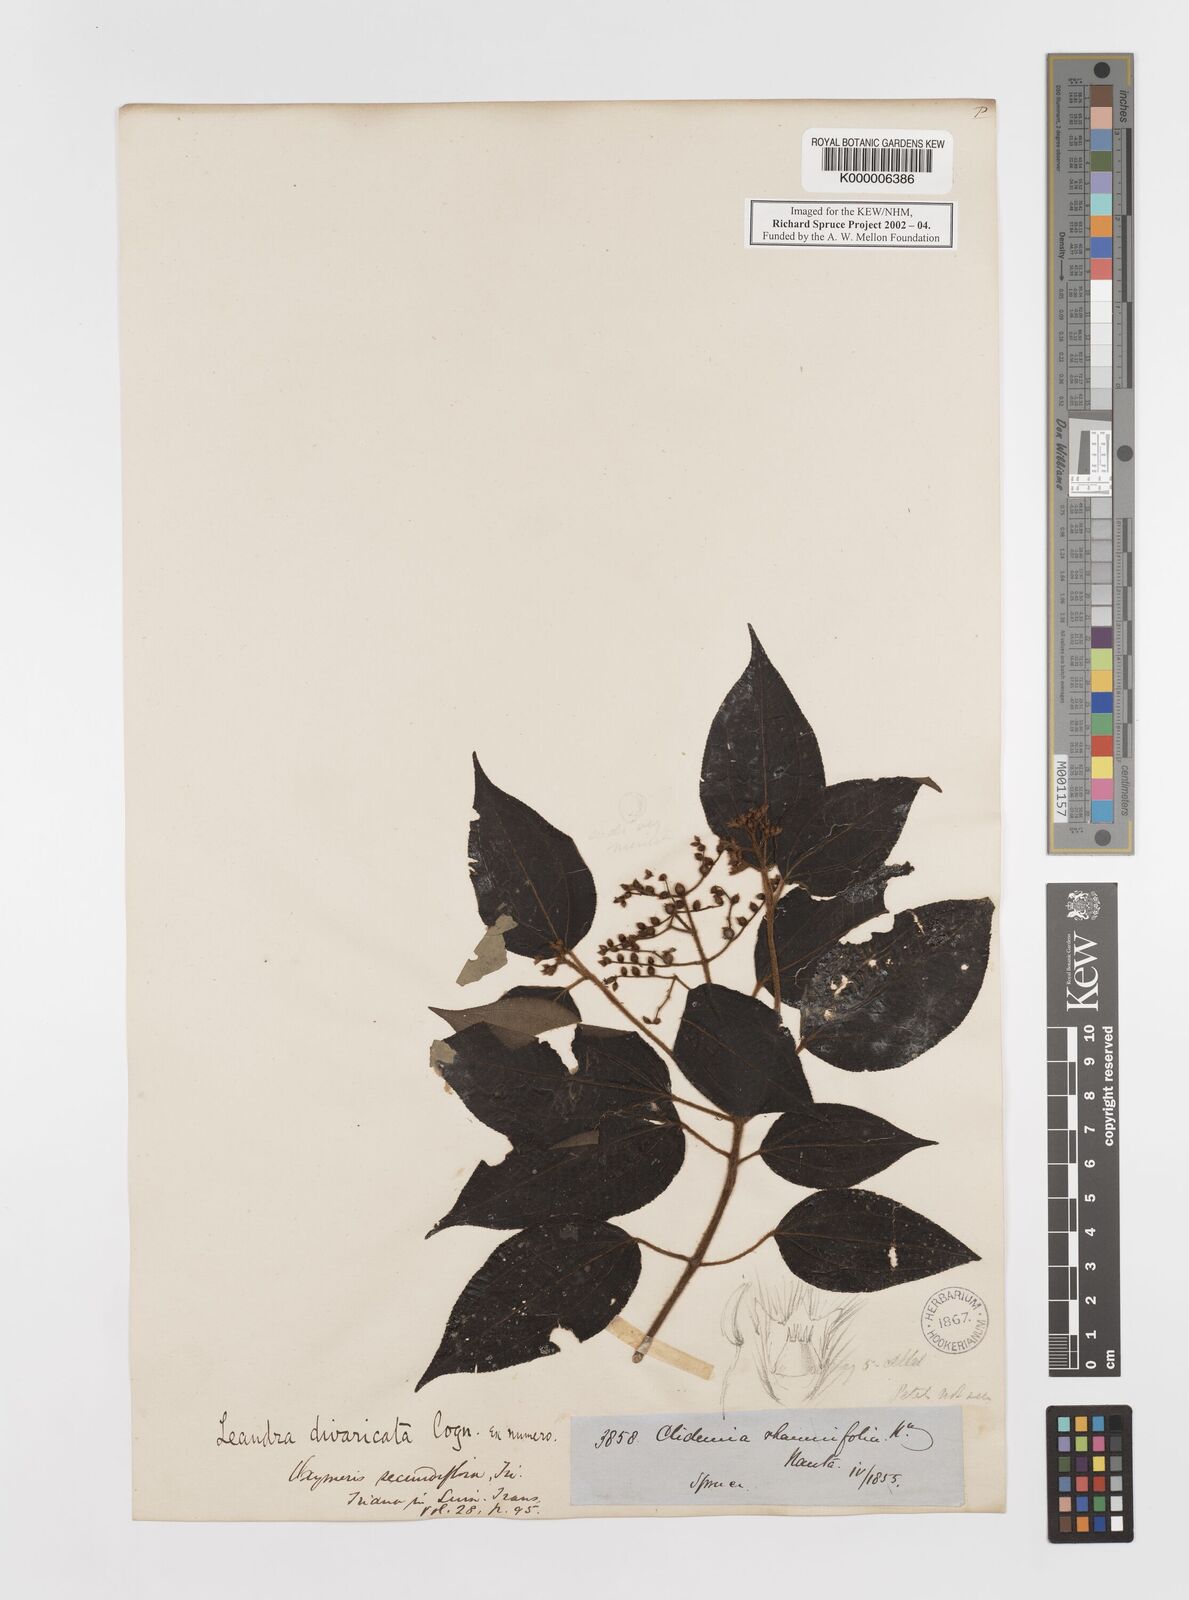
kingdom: Plantae
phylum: Tracheophyta
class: Magnoliopsida
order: Myrtales
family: Melastomataceae
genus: Miconia
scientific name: Miconia secundivaricata
